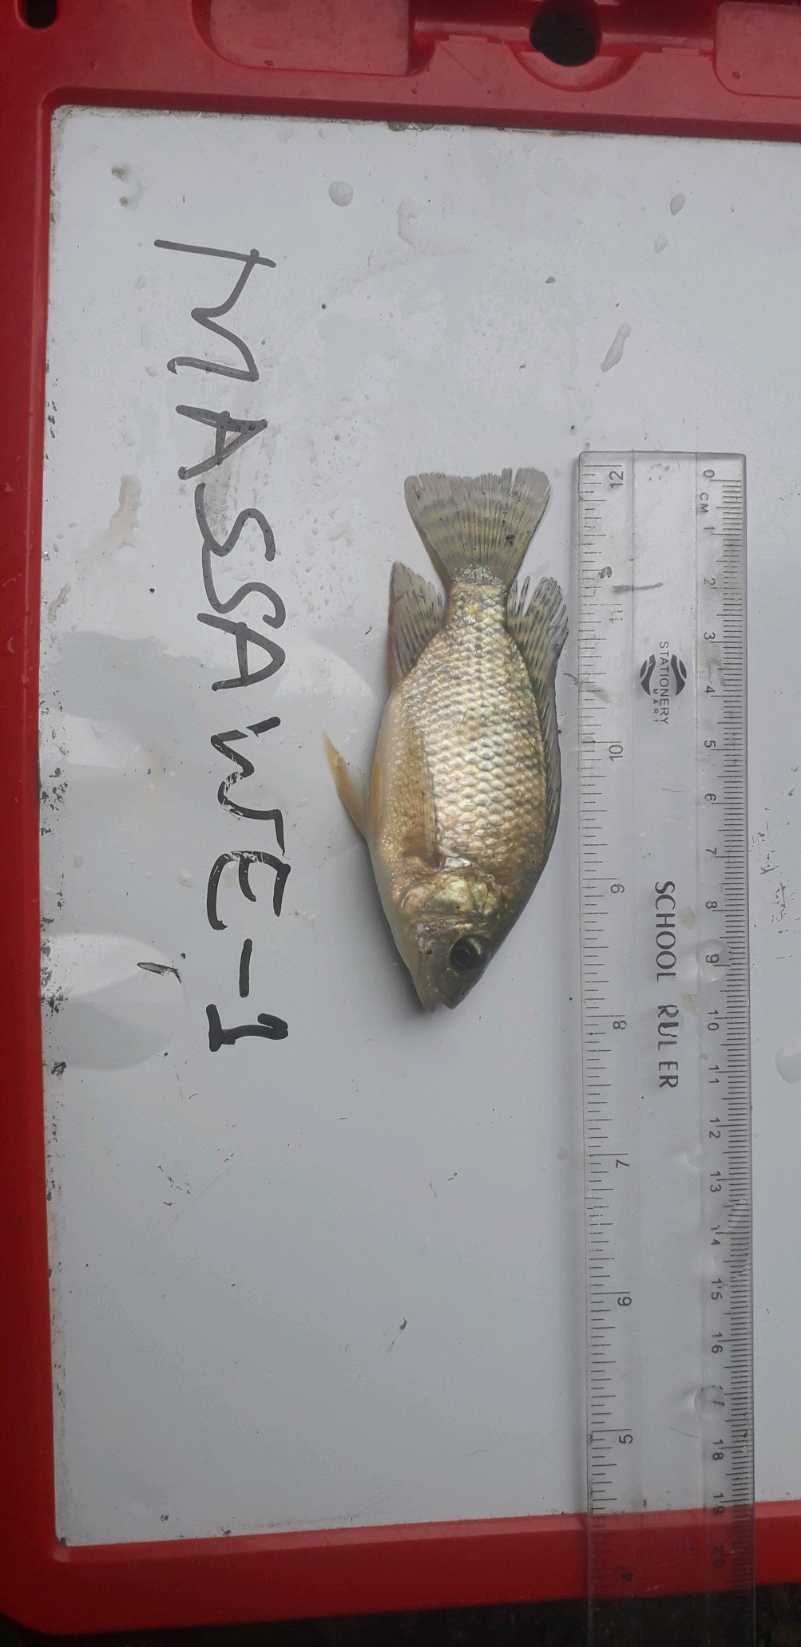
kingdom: Animalia
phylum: Chordata
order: Perciformes
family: Cichlidae
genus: Oreochromis
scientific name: Oreochromis niloticus
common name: Nile tilapia
